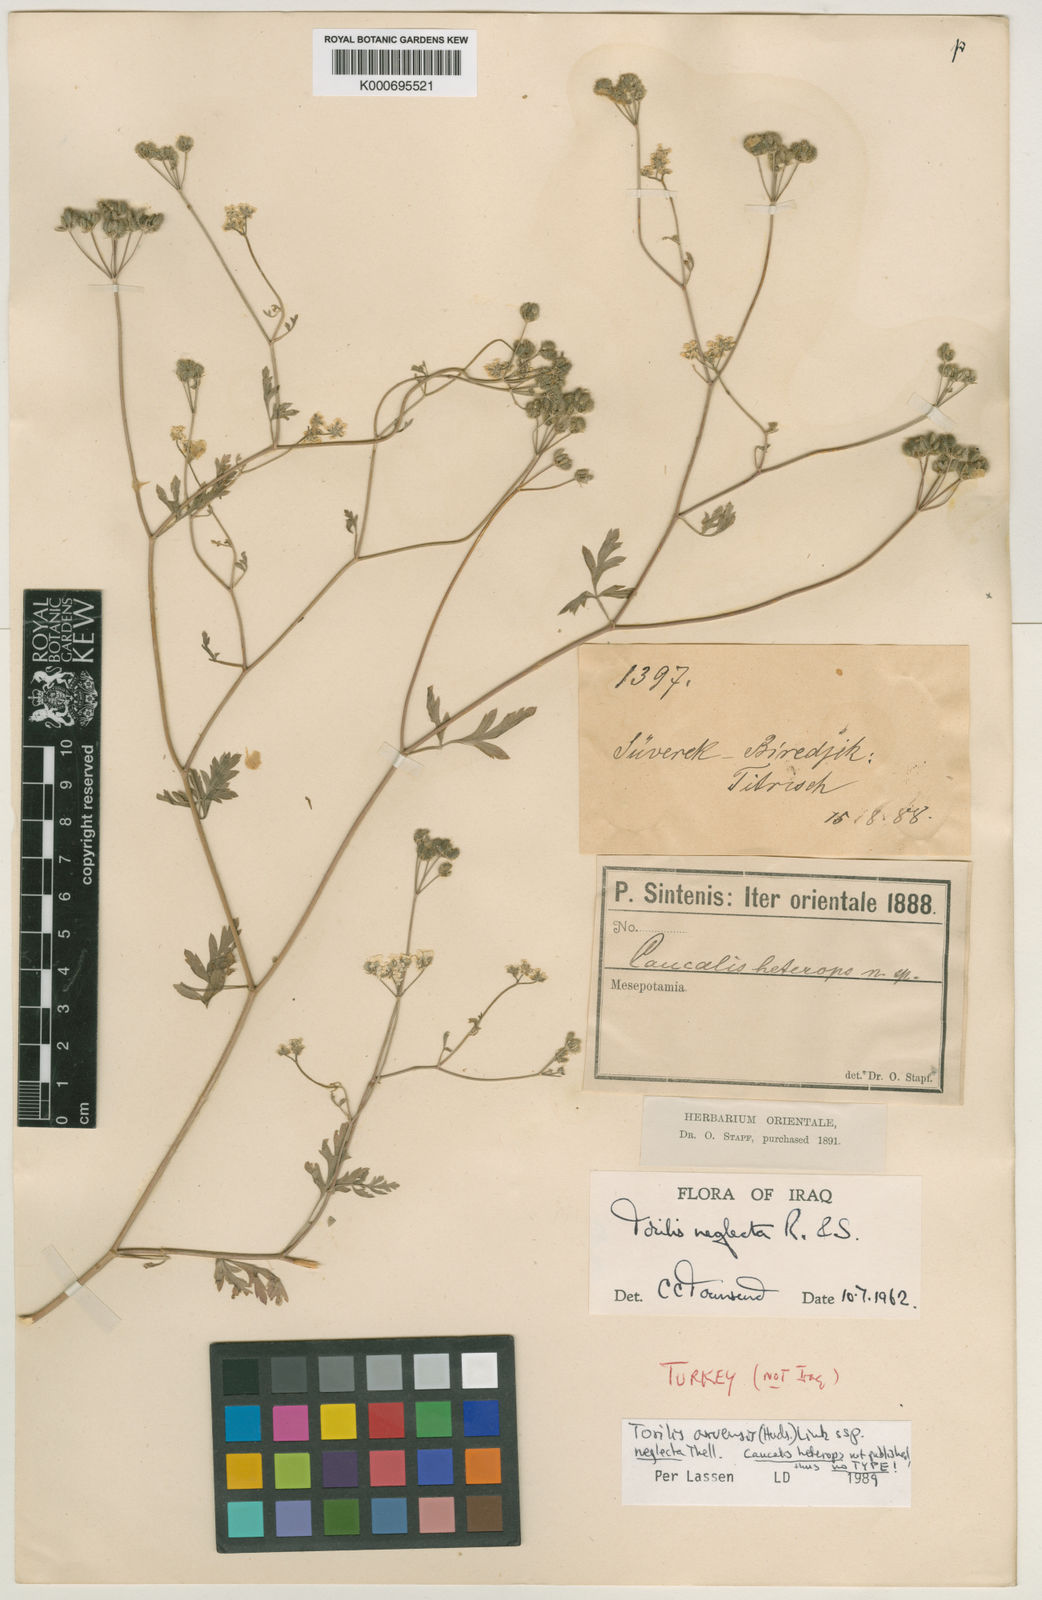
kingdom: Plantae
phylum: Tracheophyta
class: Magnoliopsida
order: Apiales
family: Apiaceae
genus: Torilis
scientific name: Torilis arvensis
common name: Spreading hedge-parsley
